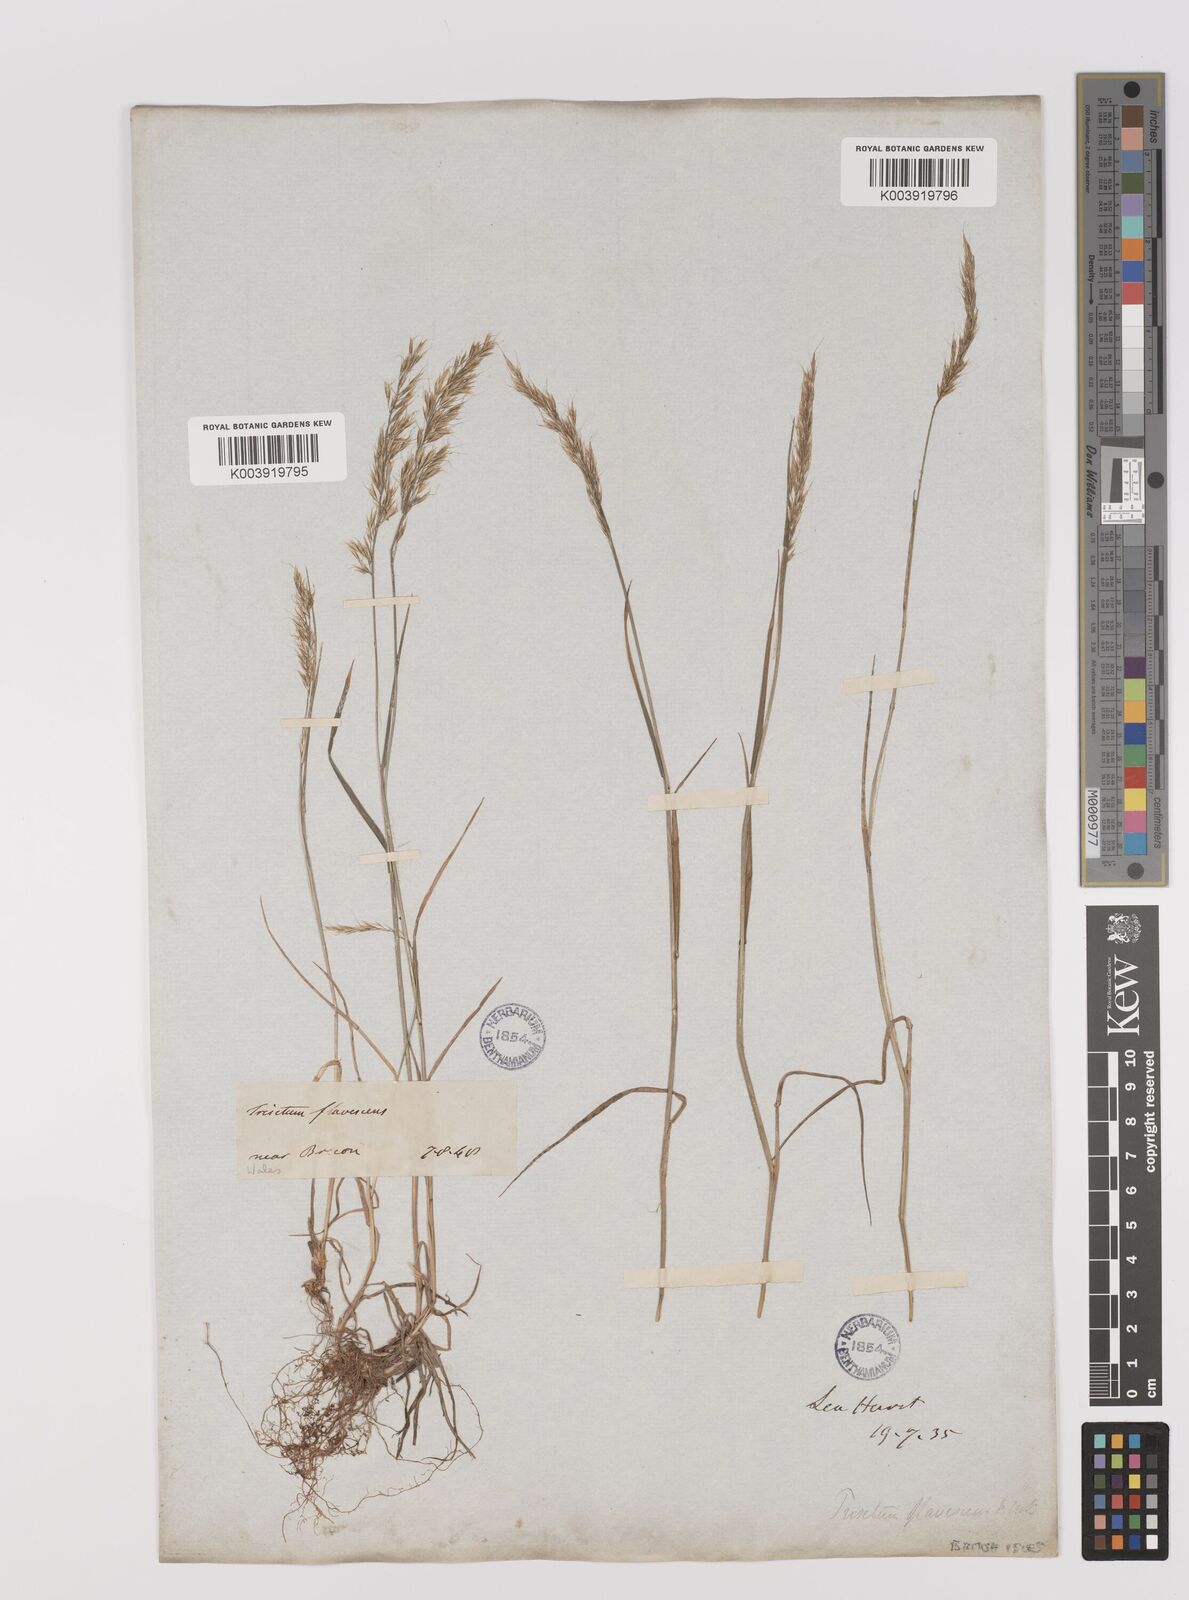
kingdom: Plantae
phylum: Tracheophyta
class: Liliopsida
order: Poales
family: Poaceae
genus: Trisetum
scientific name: Trisetum flavescens
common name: Yellow oat-grass
